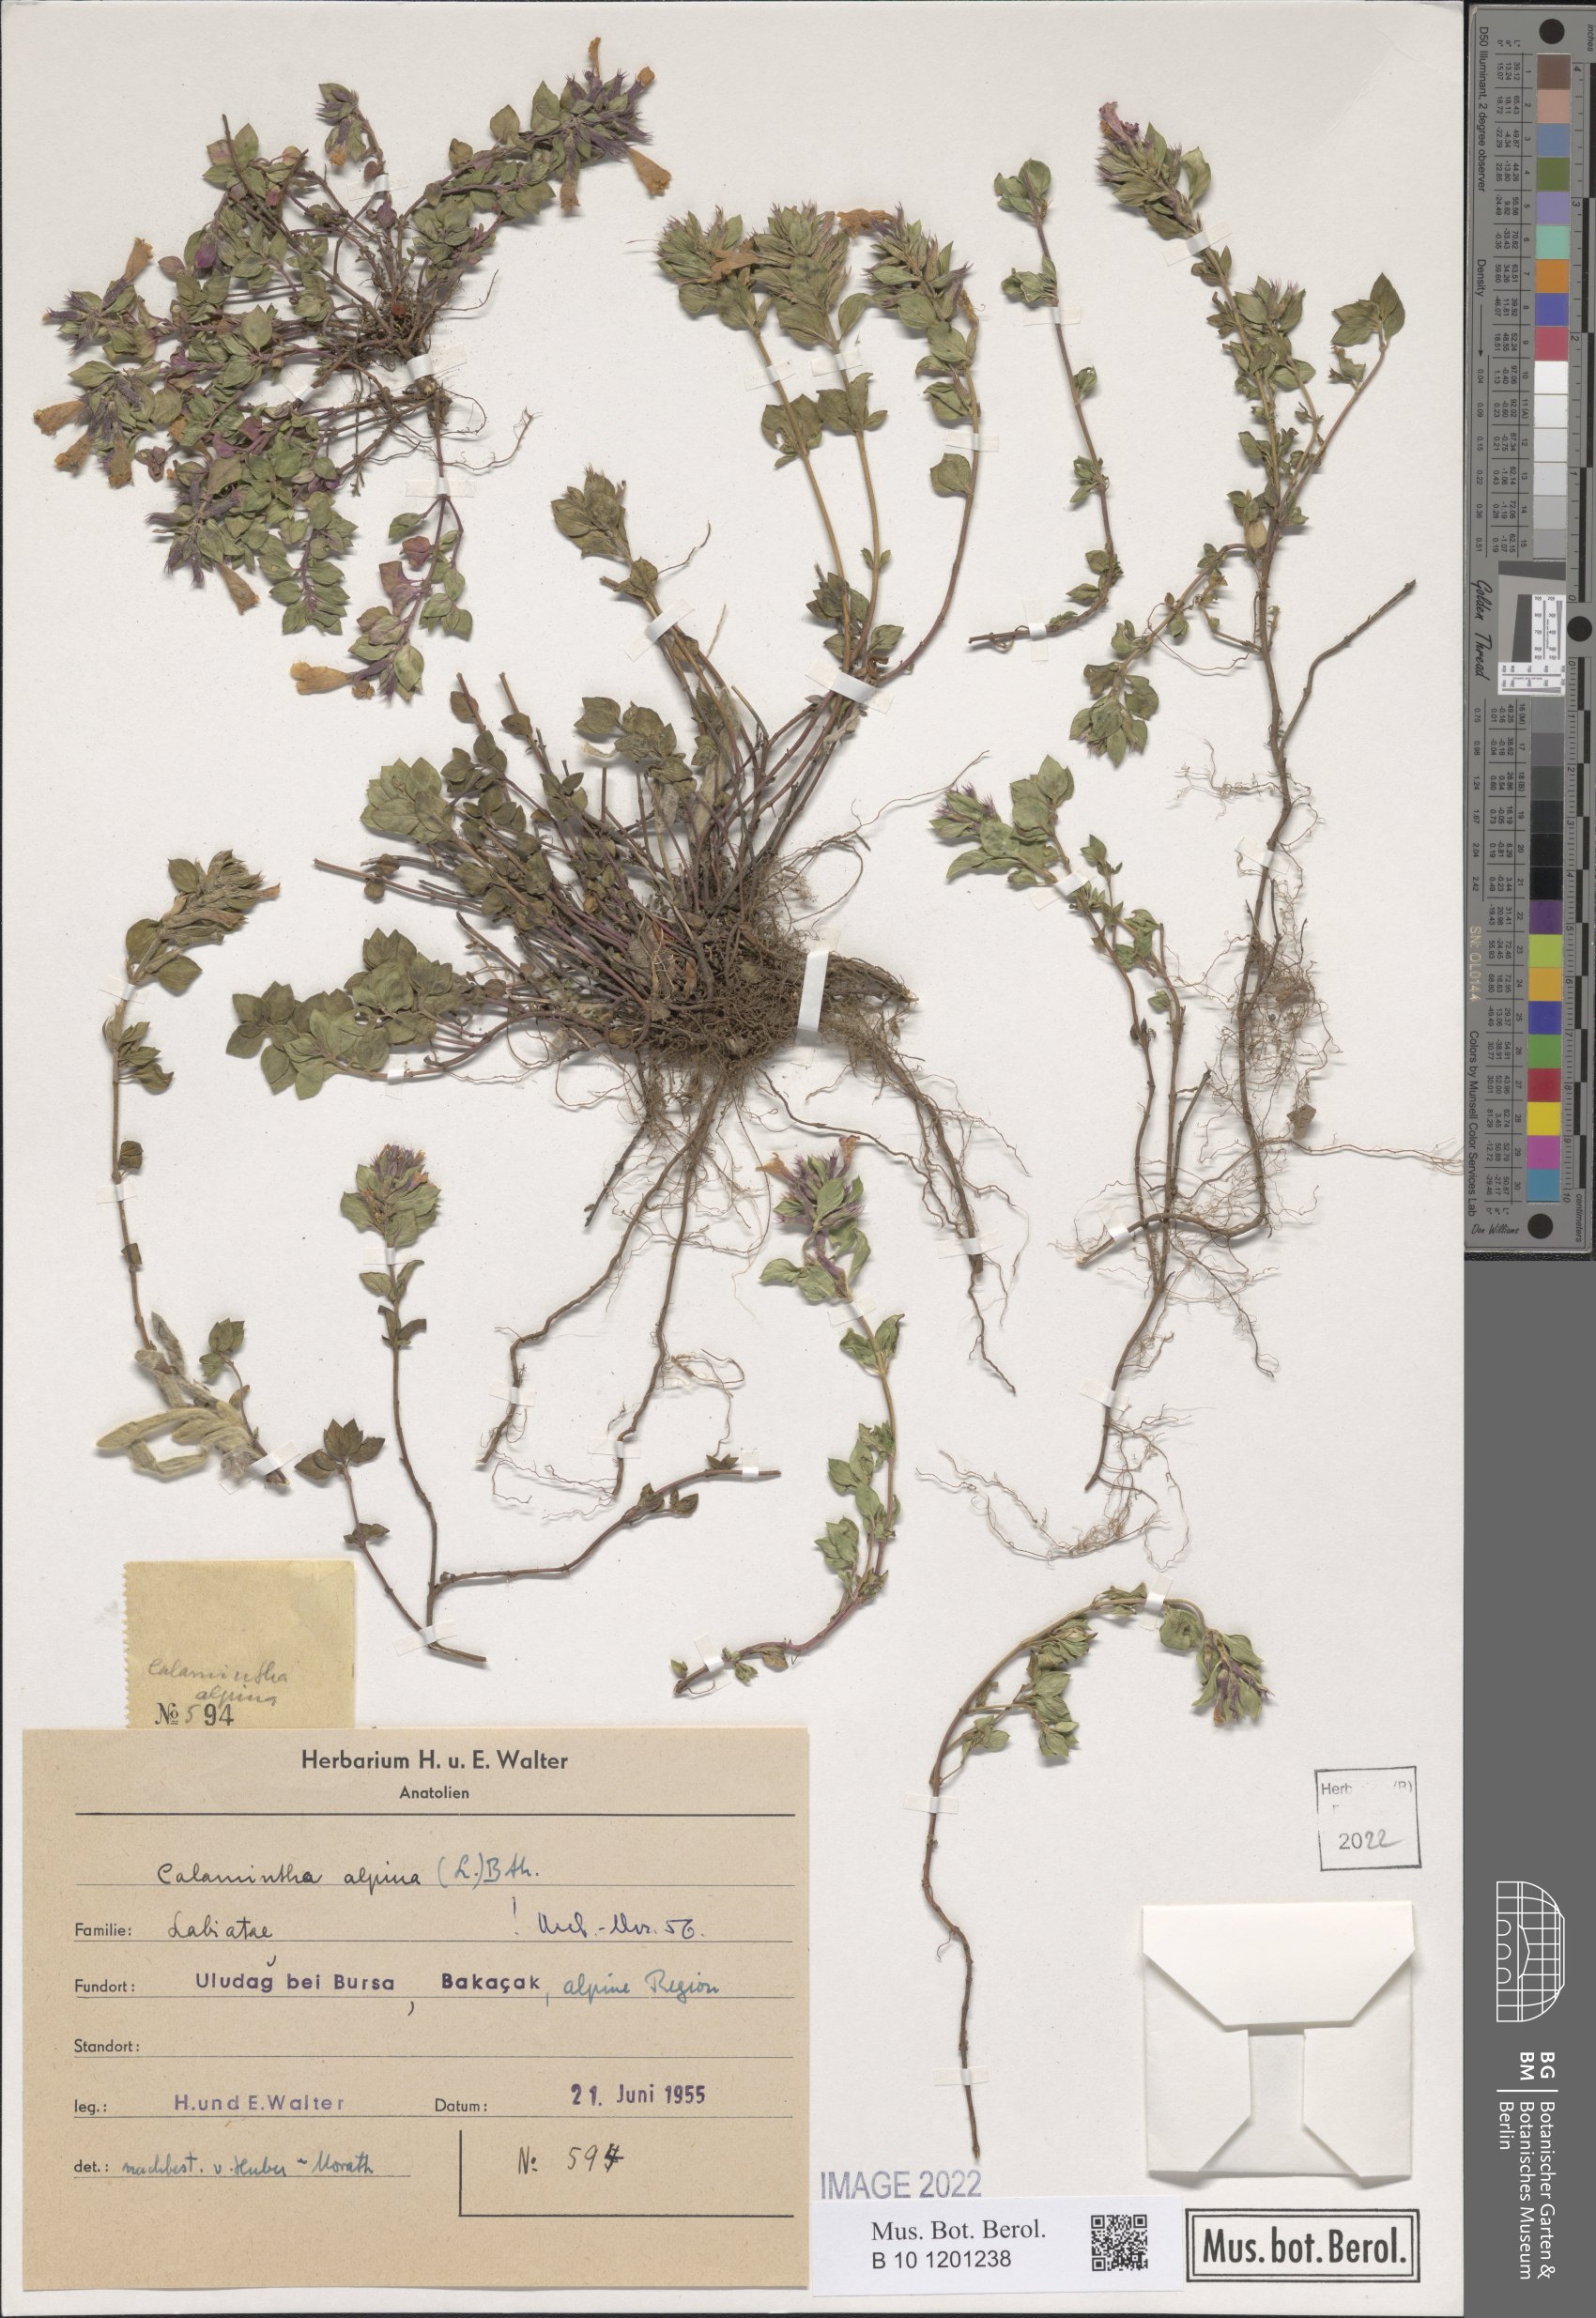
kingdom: Plantae
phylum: Tracheophyta
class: Magnoliopsida
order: Lamiales
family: Lamiaceae
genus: Clinopodium
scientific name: Clinopodium alpinum
